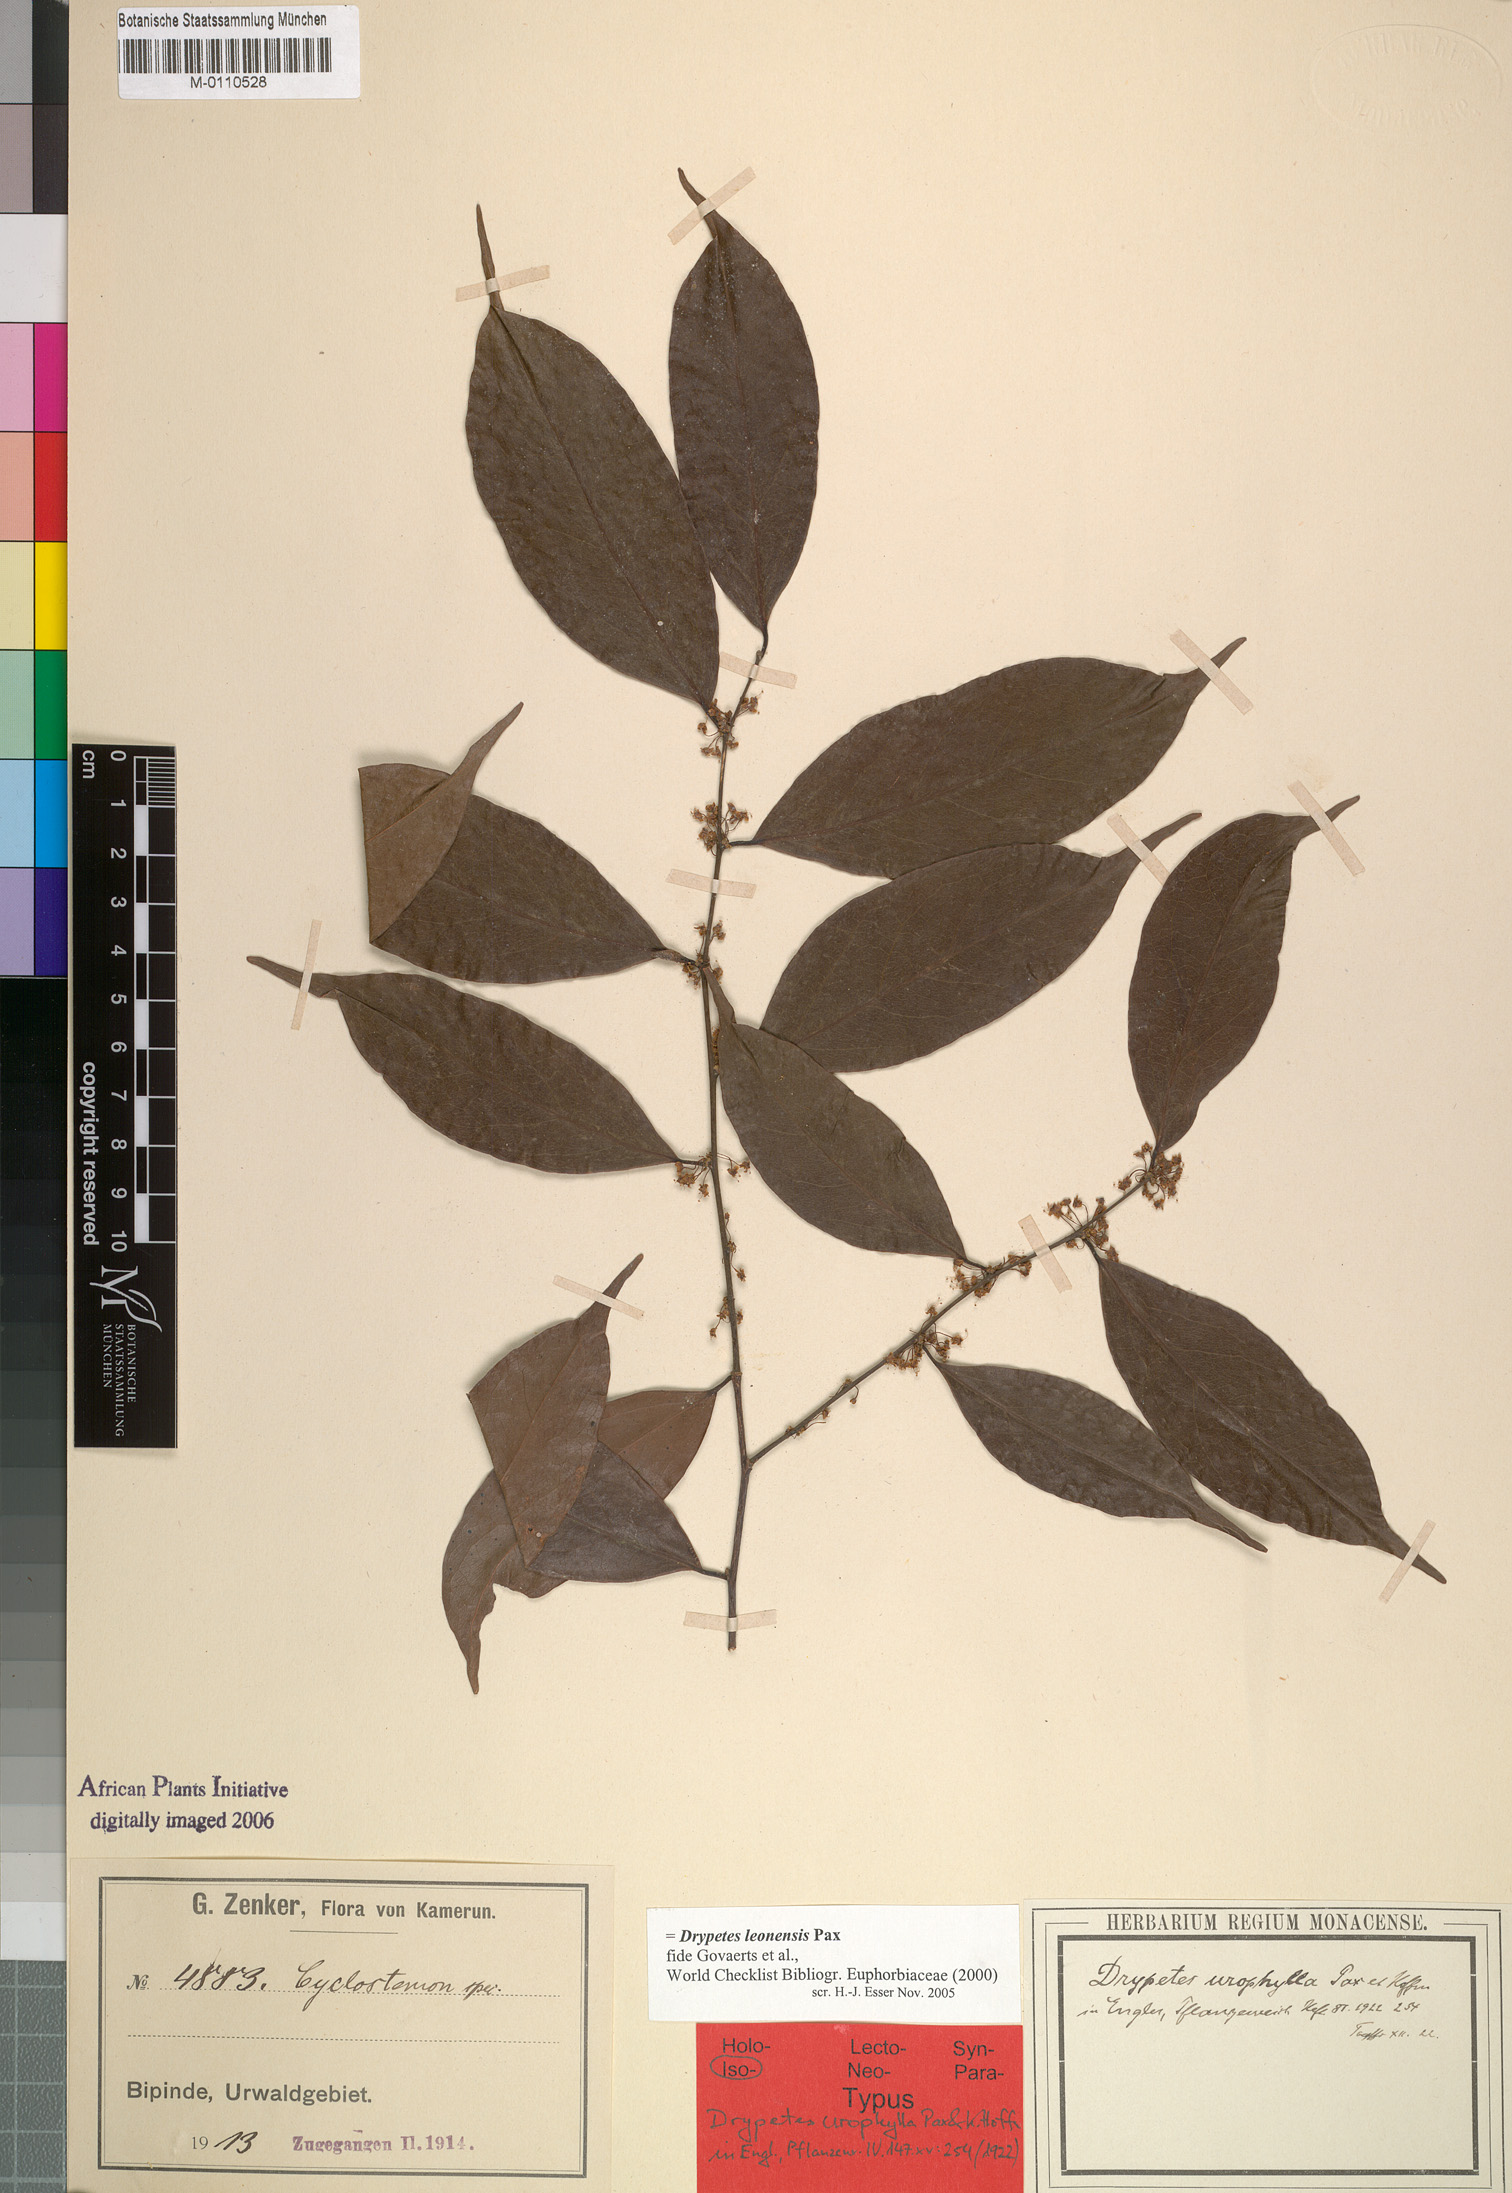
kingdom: Plantae
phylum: Tracheophyta
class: Magnoliopsida
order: Malpighiales
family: Putranjivaceae
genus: Drypetes
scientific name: Drypetes leonensis
